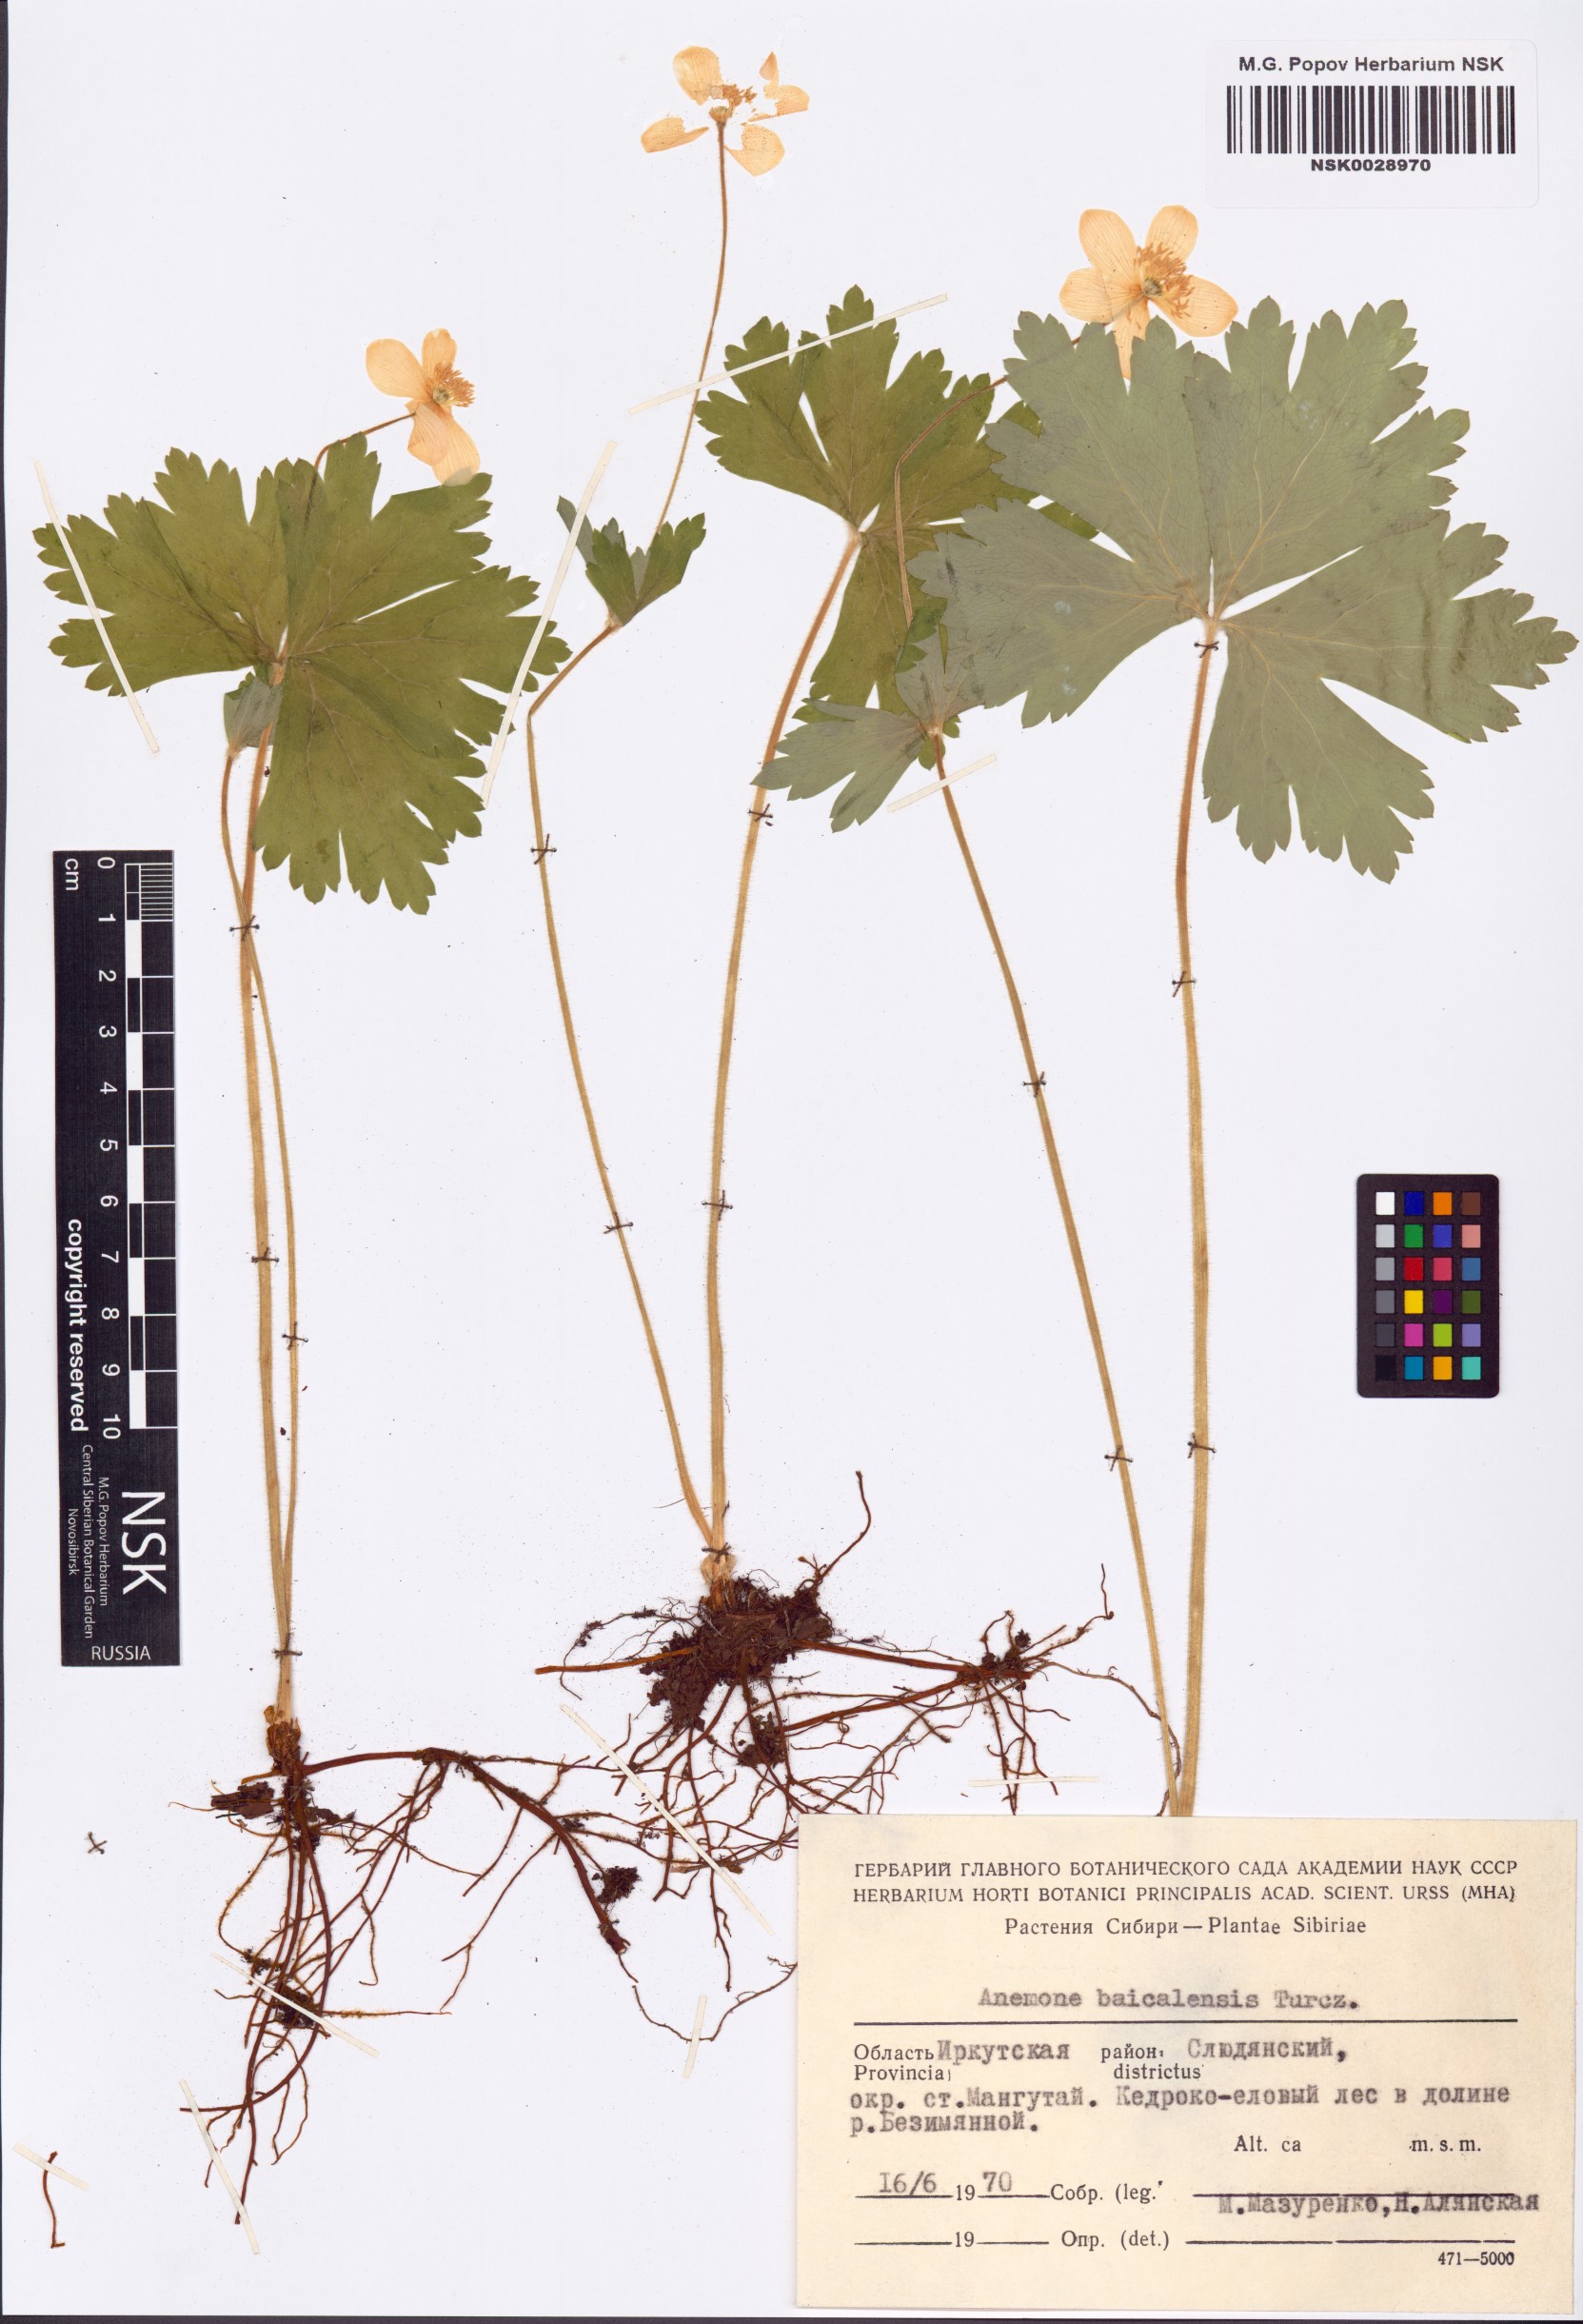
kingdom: Plantae
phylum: Tracheophyta
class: Magnoliopsida
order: Ranunculales
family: Ranunculaceae
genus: Anemonastrum
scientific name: Anemonastrum baicalense
